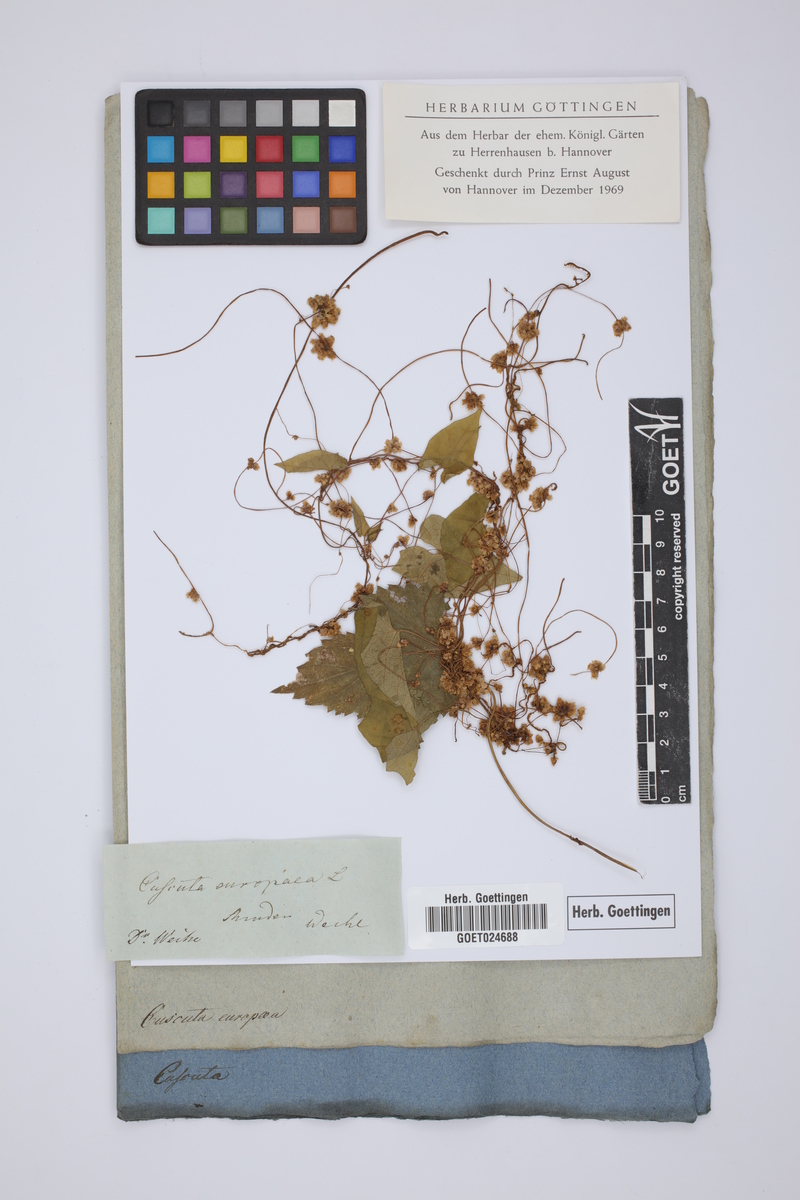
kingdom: Plantae
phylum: Tracheophyta
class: Magnoliopsida
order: Solanales
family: Convolvulaceae
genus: Cuscuta
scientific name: Cuscuta europaea
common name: Greater dodder
